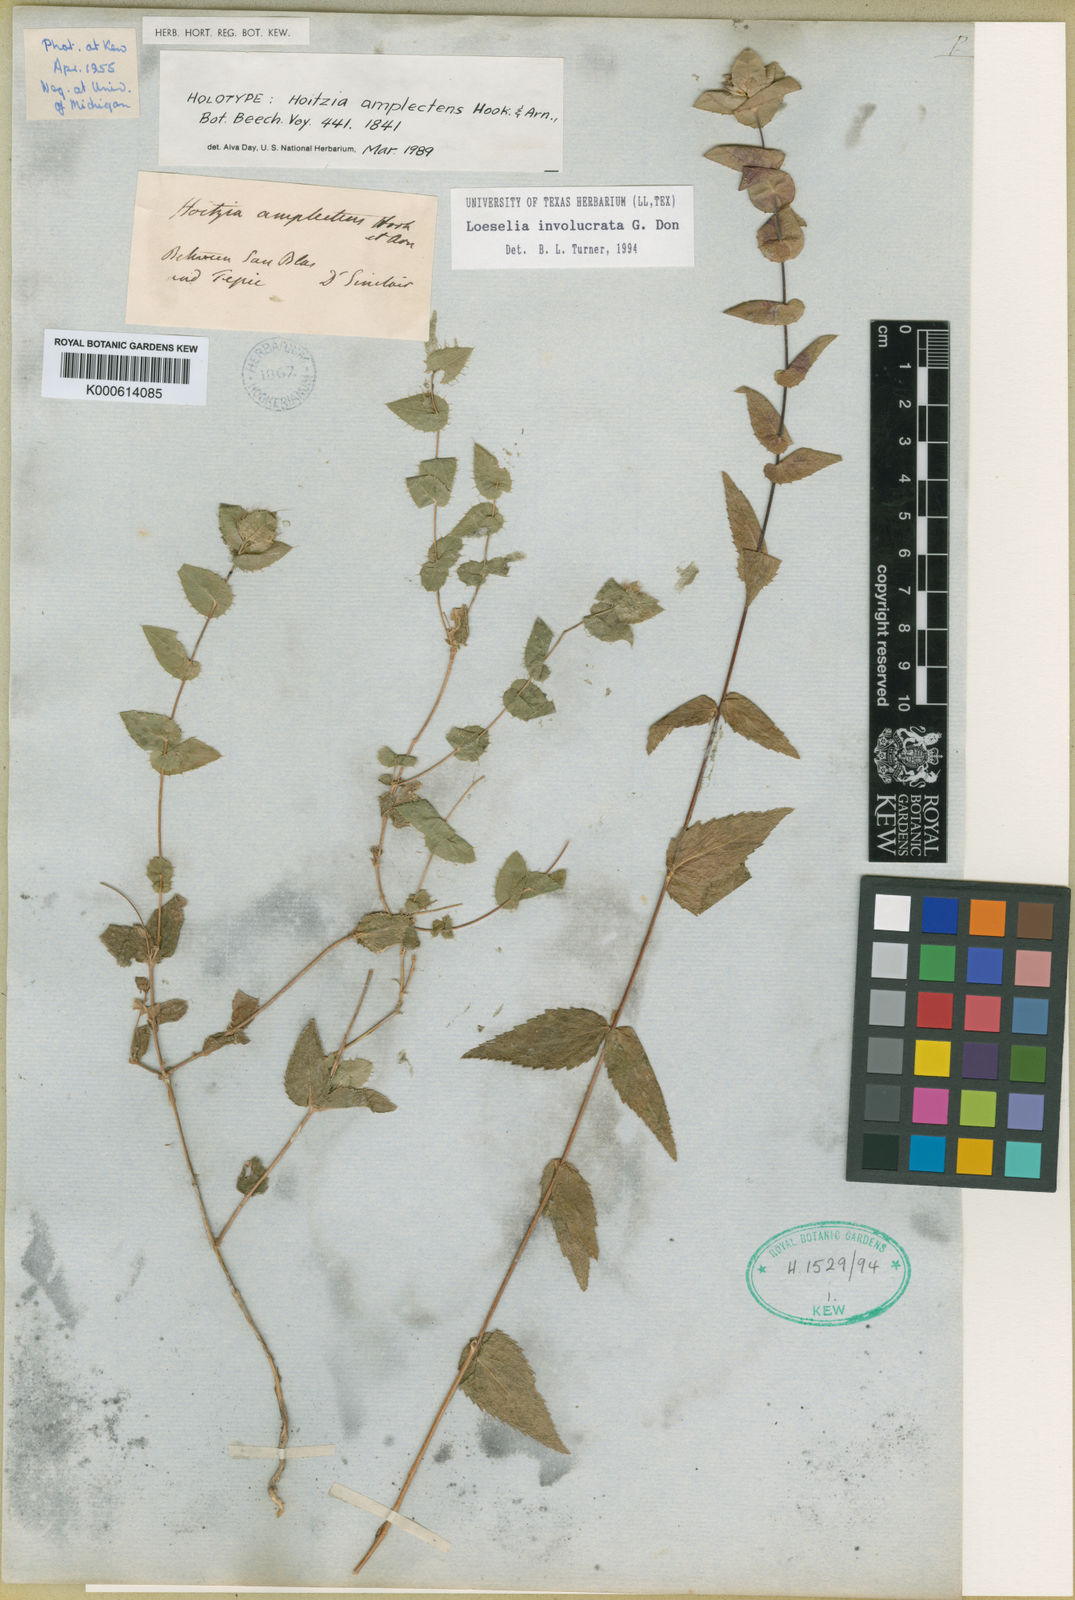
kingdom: Plantae
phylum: Tracheophyta
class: Magnoliopsida
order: Ericales
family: Polemoniaceae
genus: Loeselia
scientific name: Loeselia amplectens
